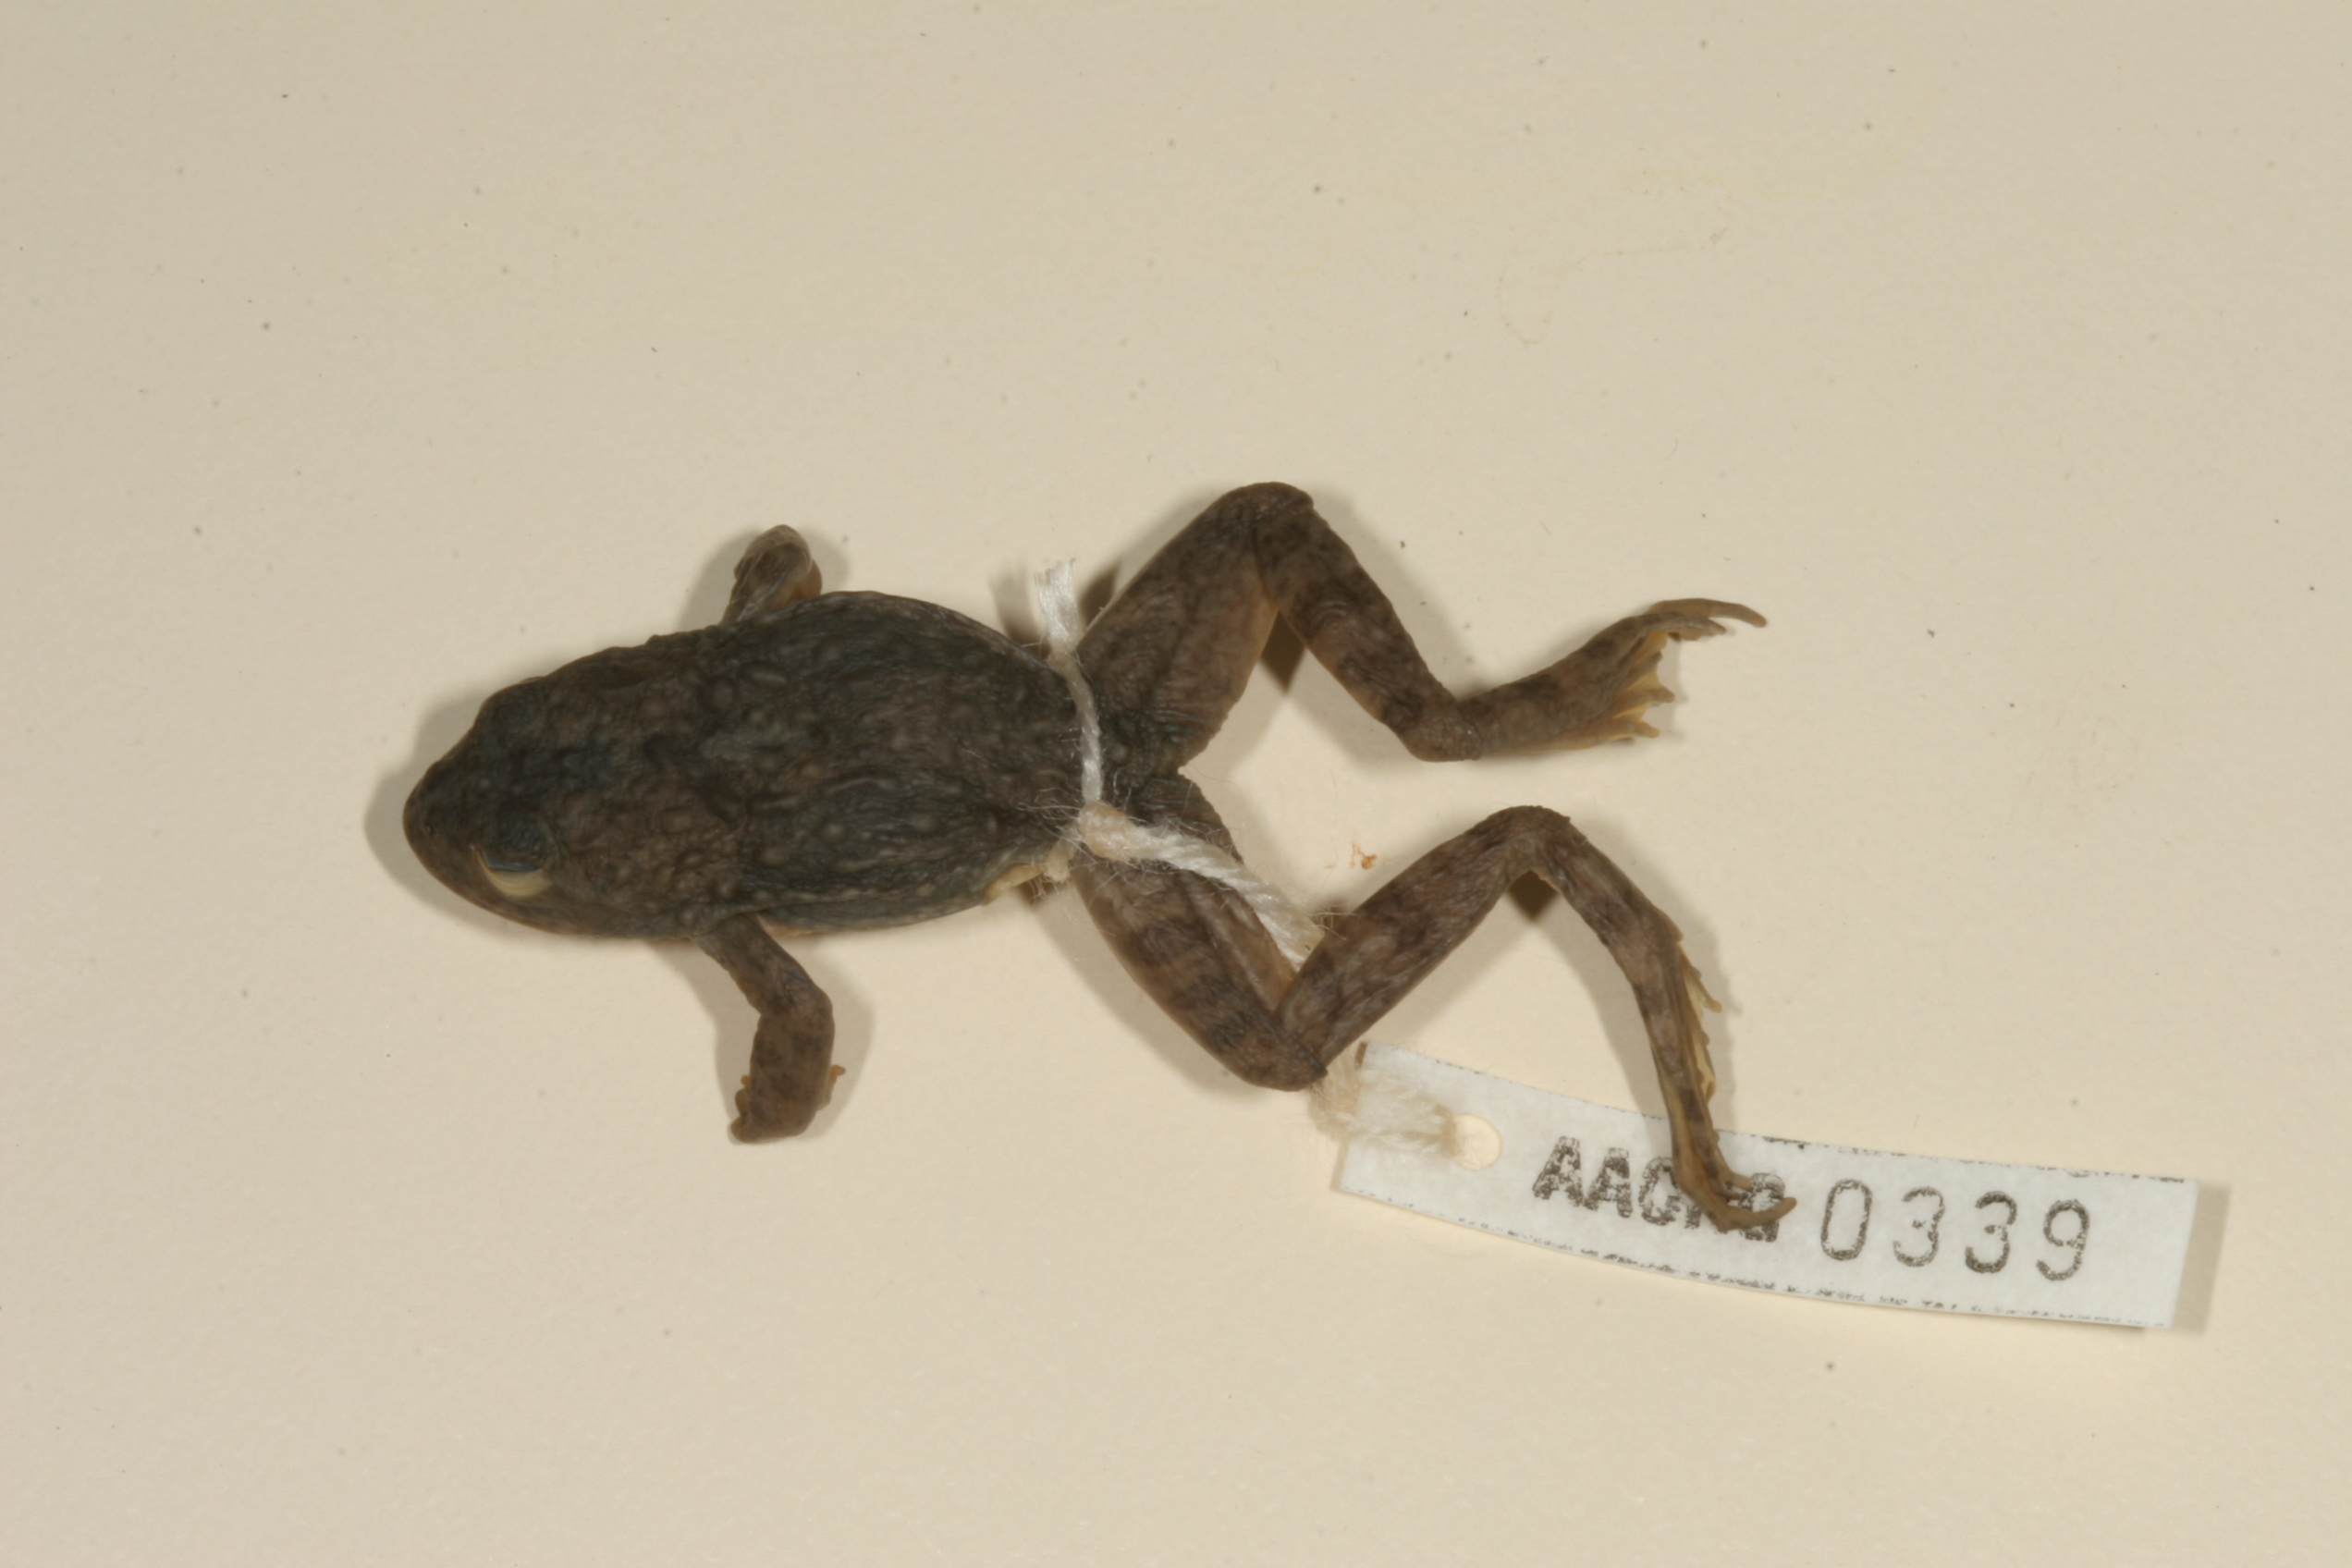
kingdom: Animalia
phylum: Chordata
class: Amphibia
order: Anura
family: Pyxicephalidae
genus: Amietia
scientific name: Amietia vertebralis
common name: Drakensberg stream frog
